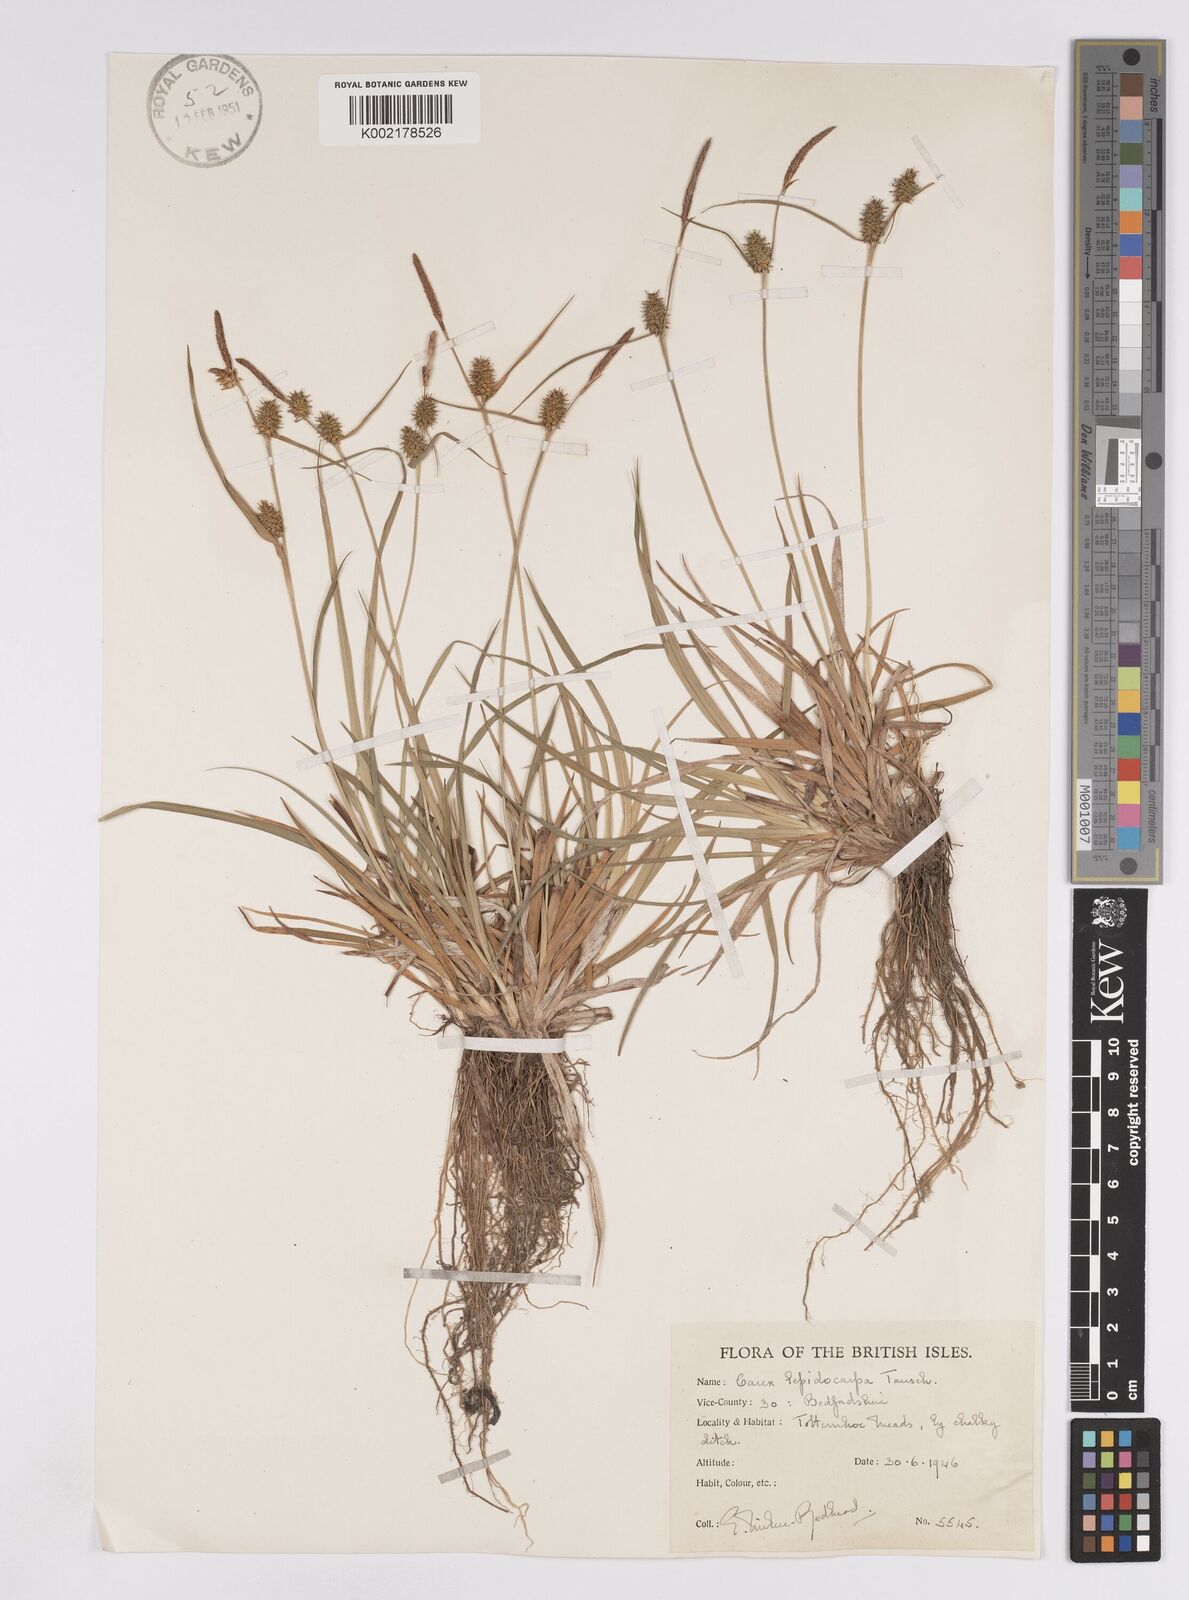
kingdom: Plantae
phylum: Tracheophyta
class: Liliopsida
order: Poales
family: Cyperaceae
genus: Carex
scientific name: Carex lepidocarpa
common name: Long-stalked yellow-sedge
